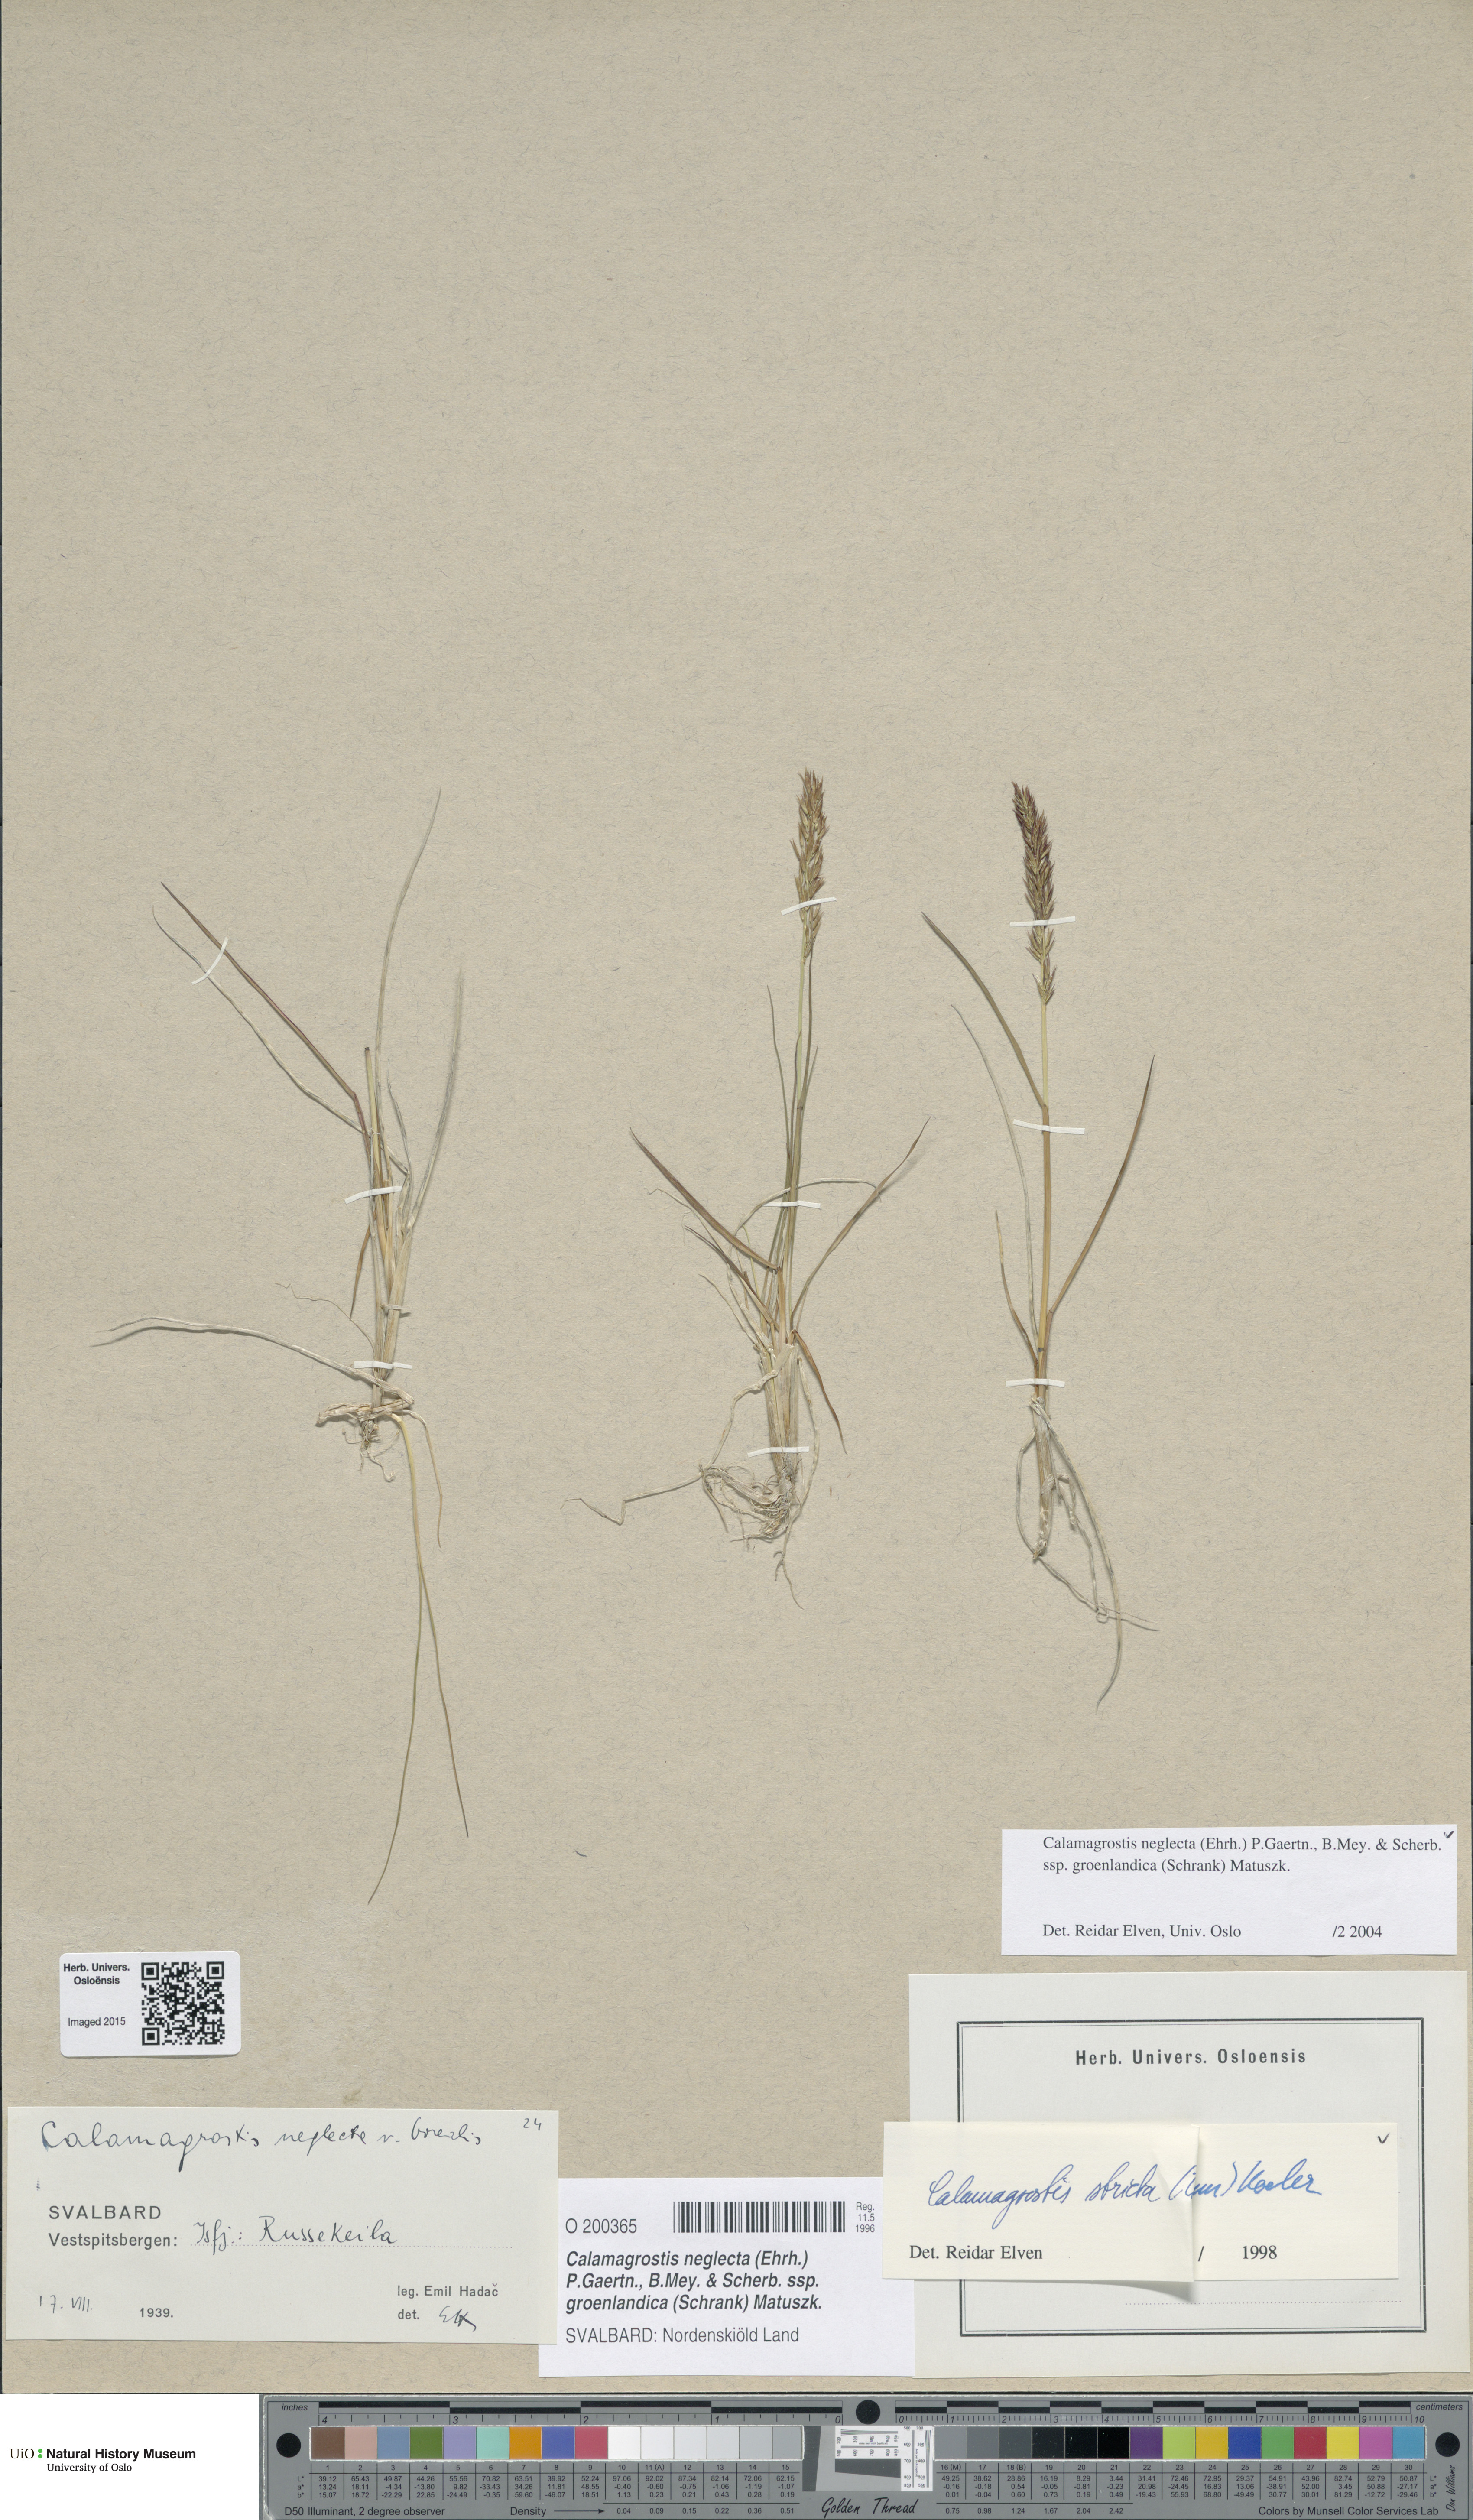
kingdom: Plantae
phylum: Tracheophyta
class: Liliopsida
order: Poales
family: Poaceae
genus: Calamagrostis
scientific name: Calamagrostis stricta
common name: Narrow small-reed
